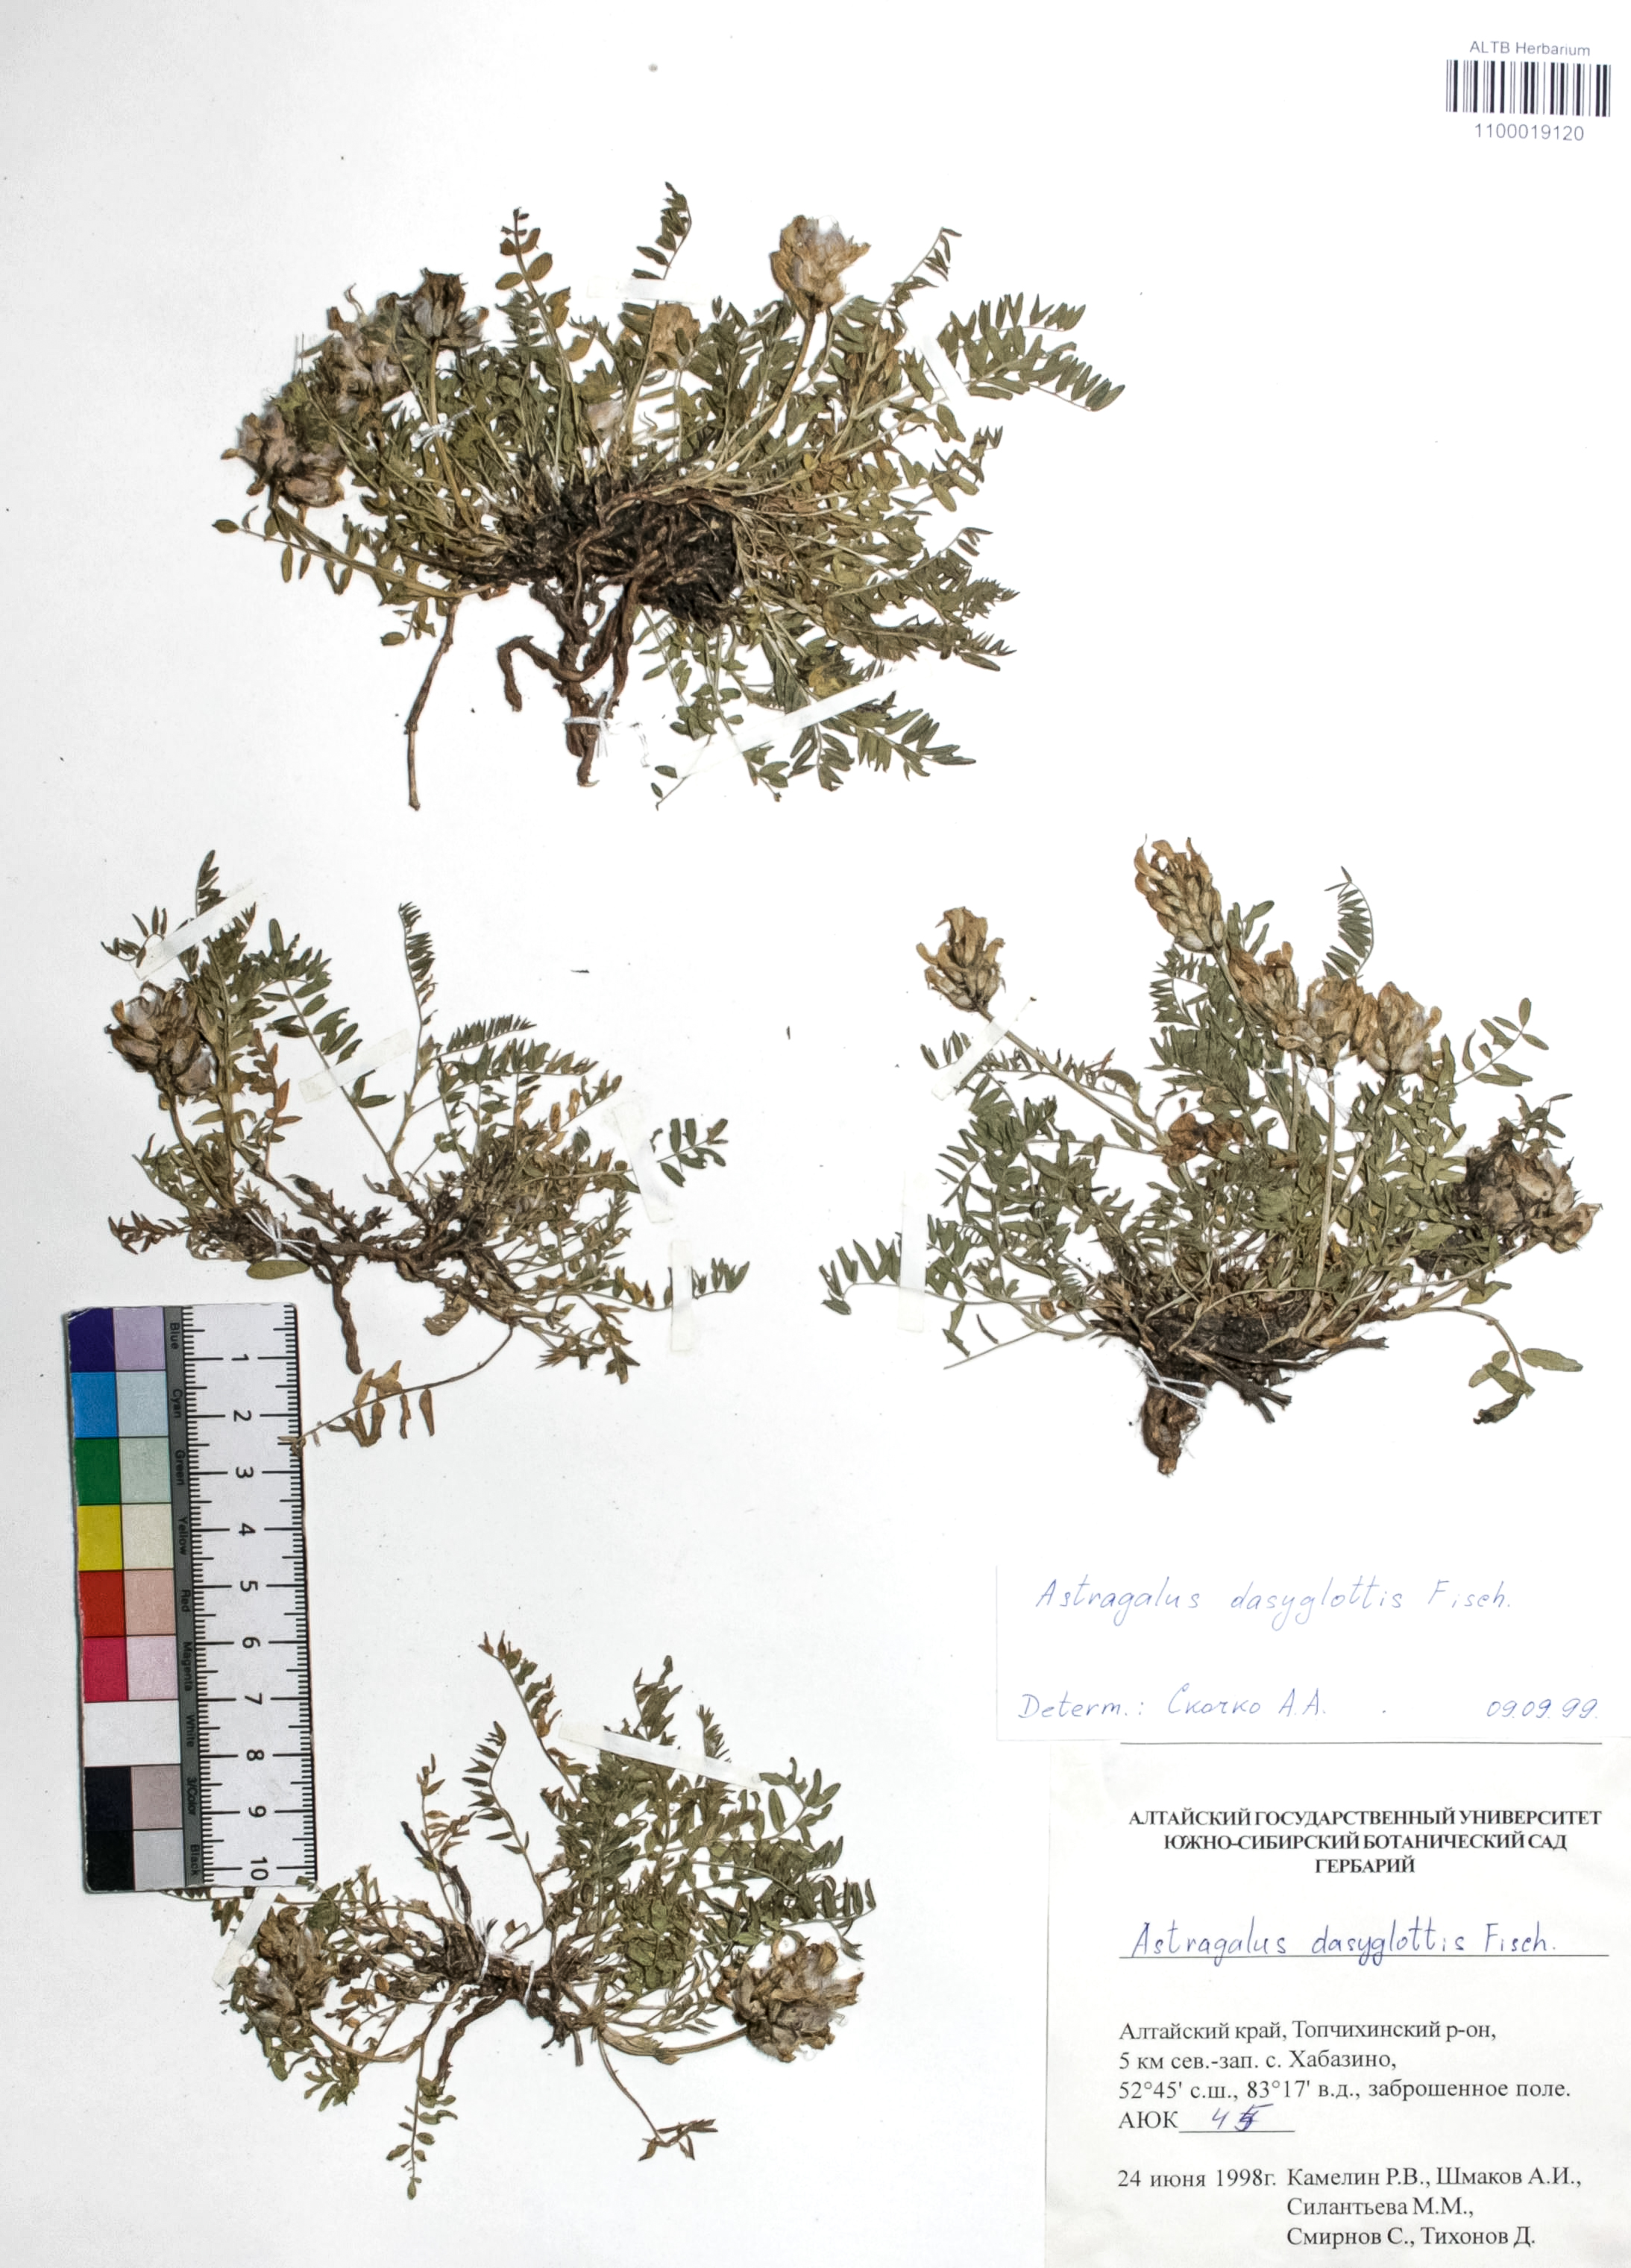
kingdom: Plantae
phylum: Tracheophyta
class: Magnoliopsida
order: Fabales
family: Fabaceae
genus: Astragalus
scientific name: Astragalus agrestis
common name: Field milk-vetch
